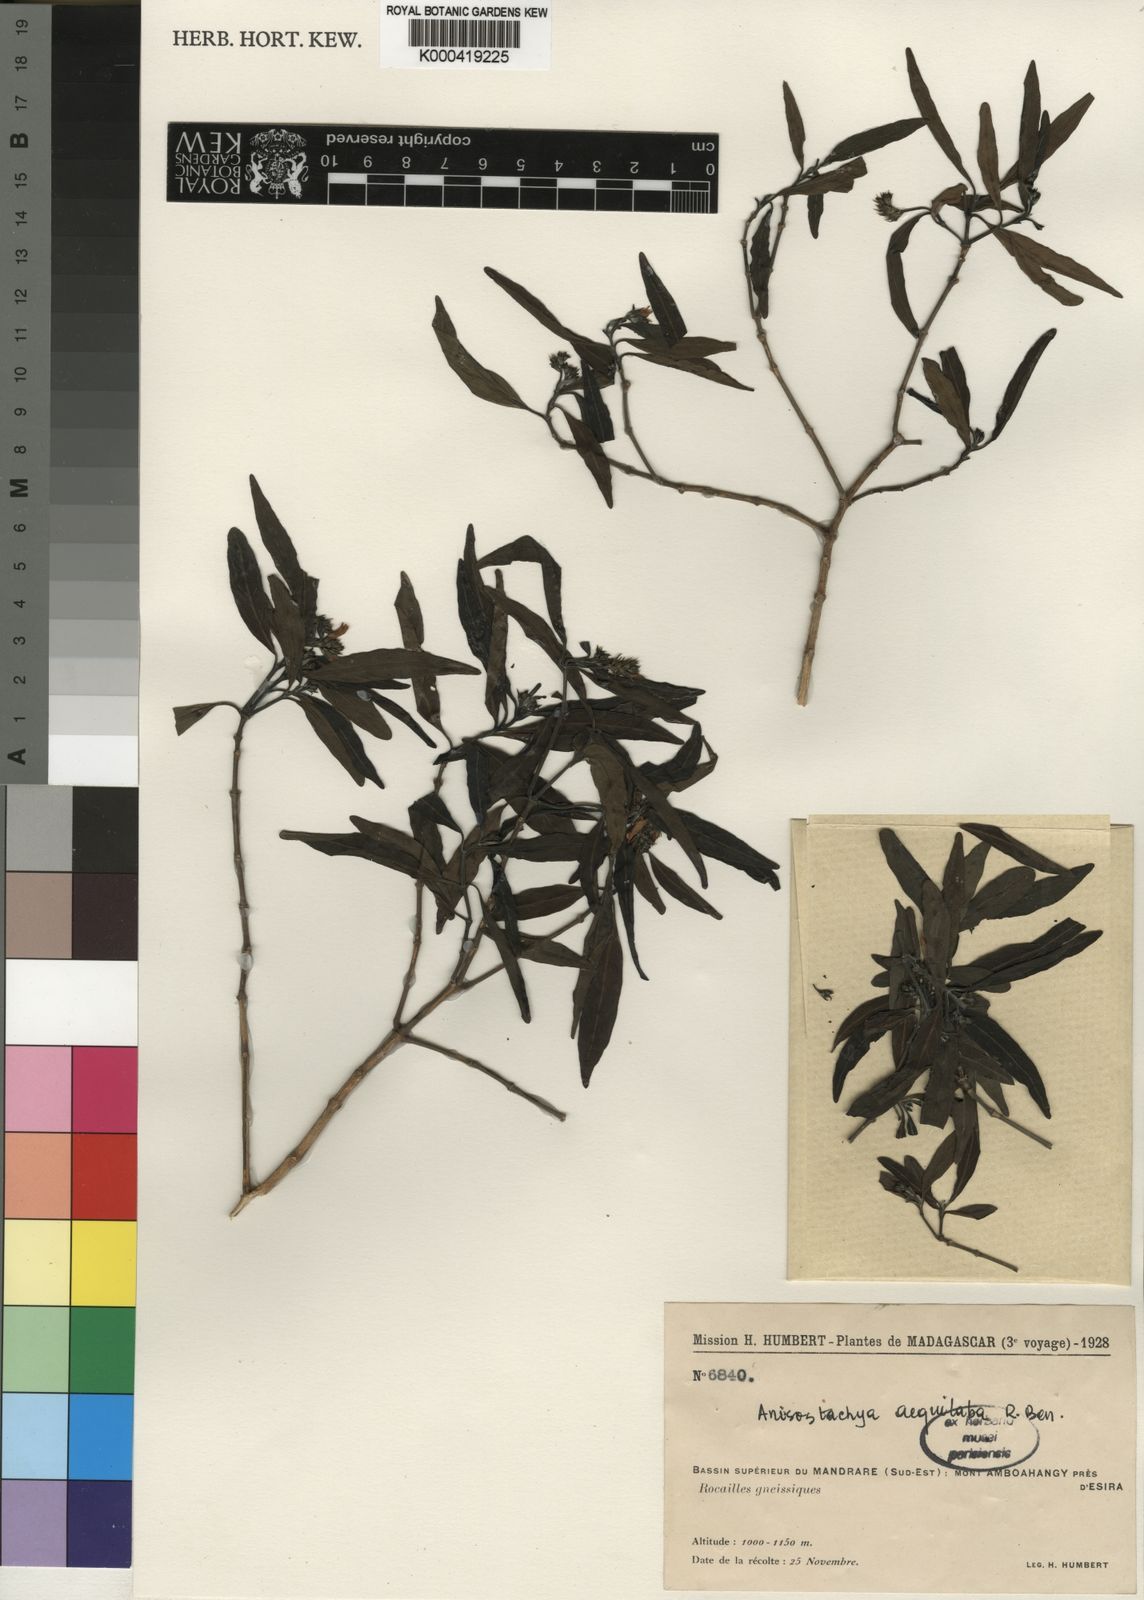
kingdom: Plantae
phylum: Tracheophyta
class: Magnoliopsida
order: Lamiales
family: Acanthaceae
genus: Justicia
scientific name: Justicia
